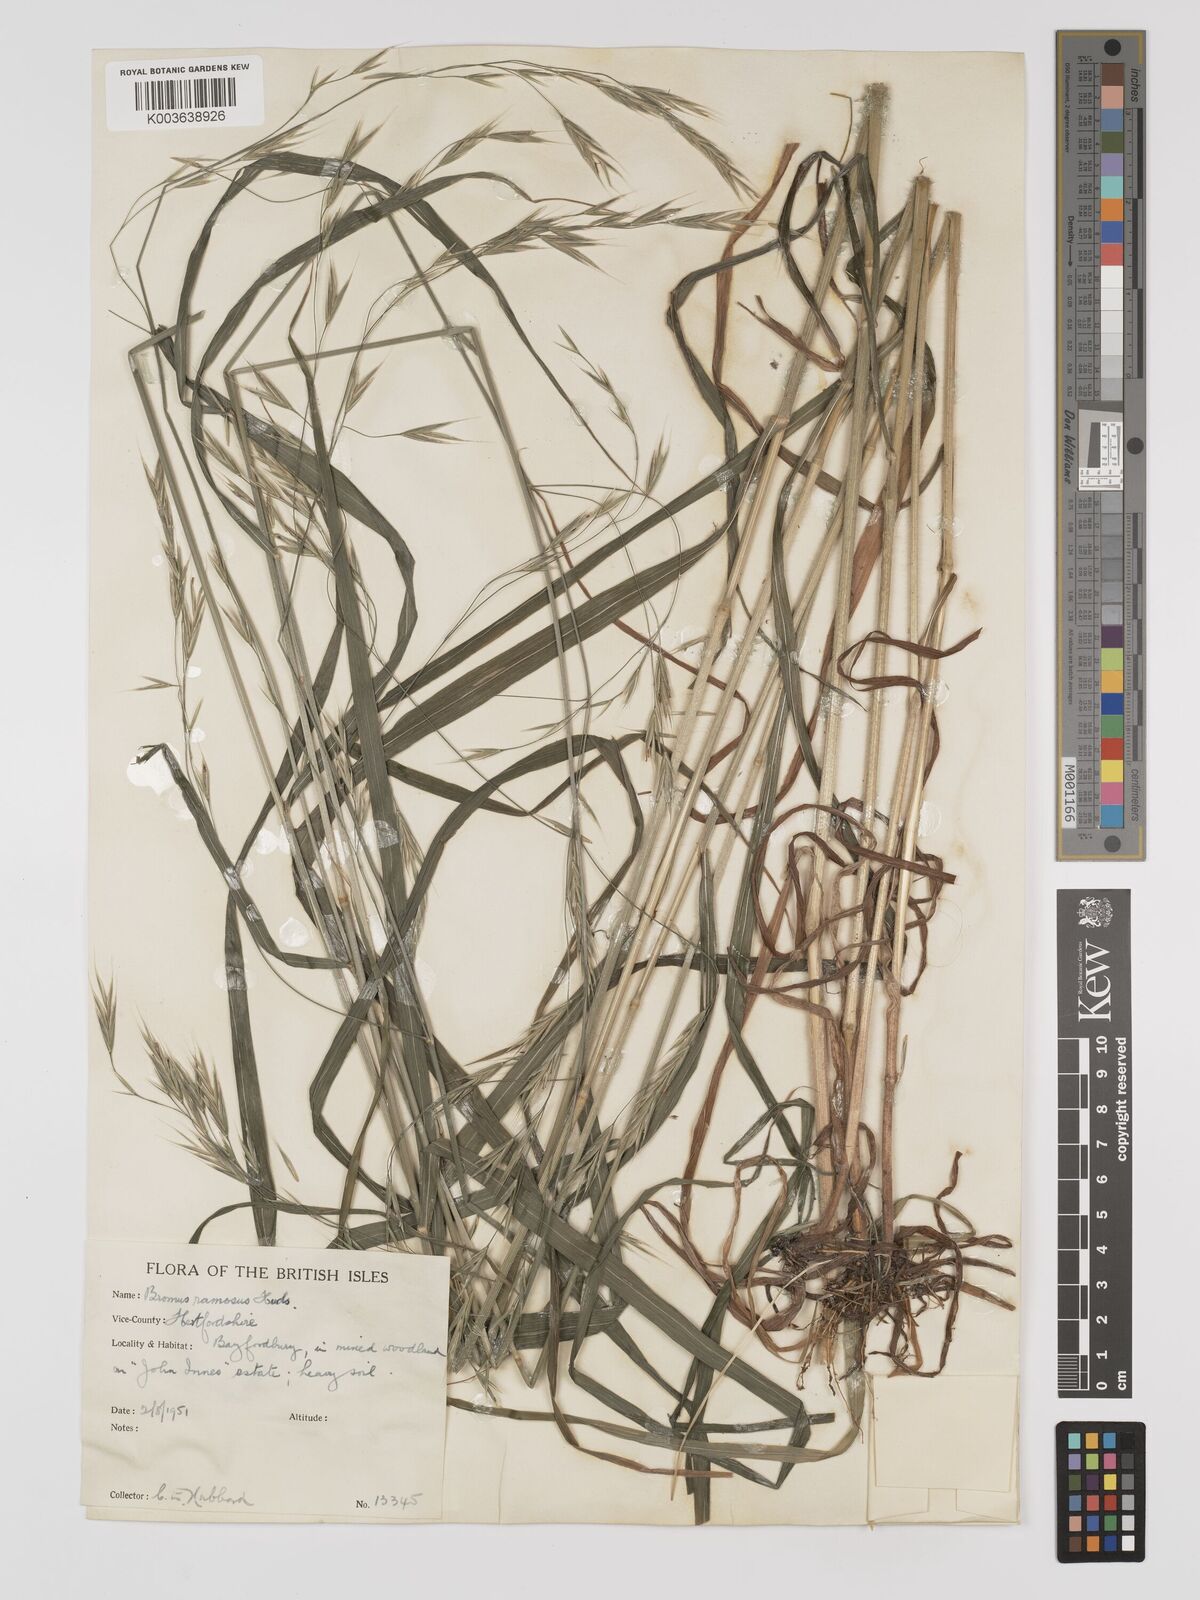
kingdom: Plantae
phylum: Tracheophyta
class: Liliopsida
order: Poales
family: Poaceae
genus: Bromus
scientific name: Bromus ramosus
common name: Hairy brome
